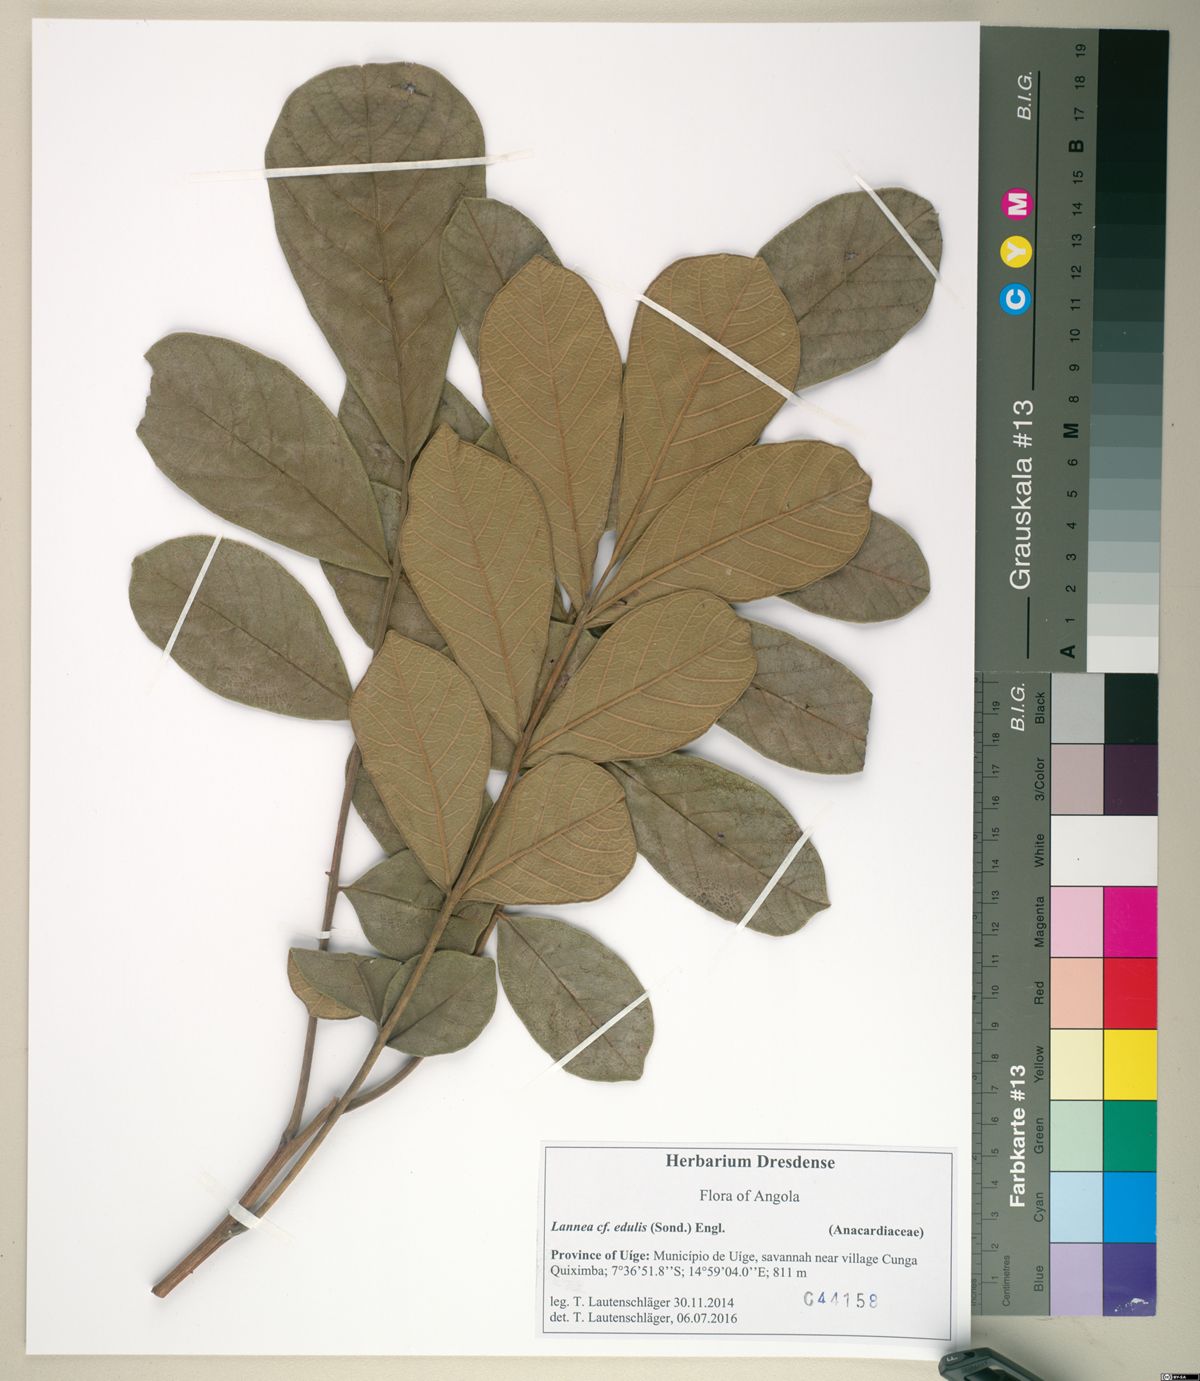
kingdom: Plantae
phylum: Tracheophyta
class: Magnoliopsida
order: Sapindales
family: Anacardiaceae
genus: Lannea
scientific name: Lannea ambacensis
